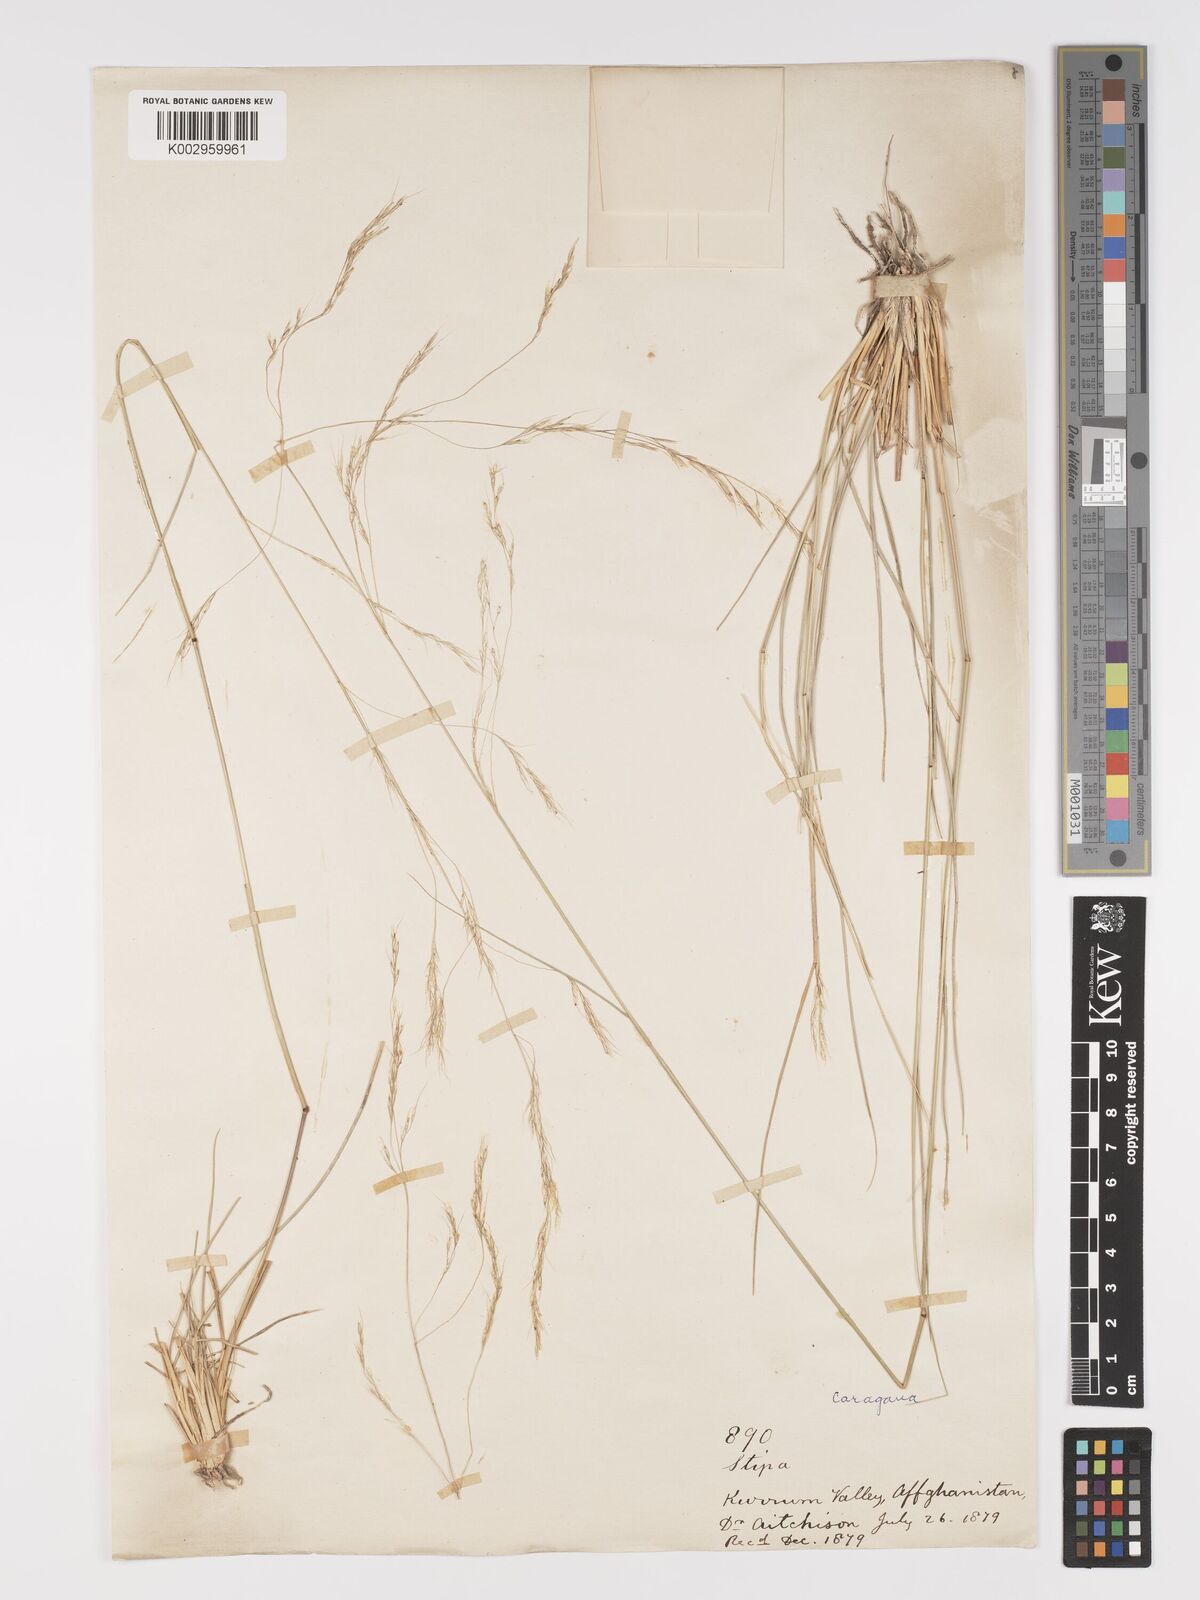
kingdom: Plantae
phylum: Tracheophyta
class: Liliopsida
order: Poales
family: Poaceae
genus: Stipa
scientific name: Stipa conferta
